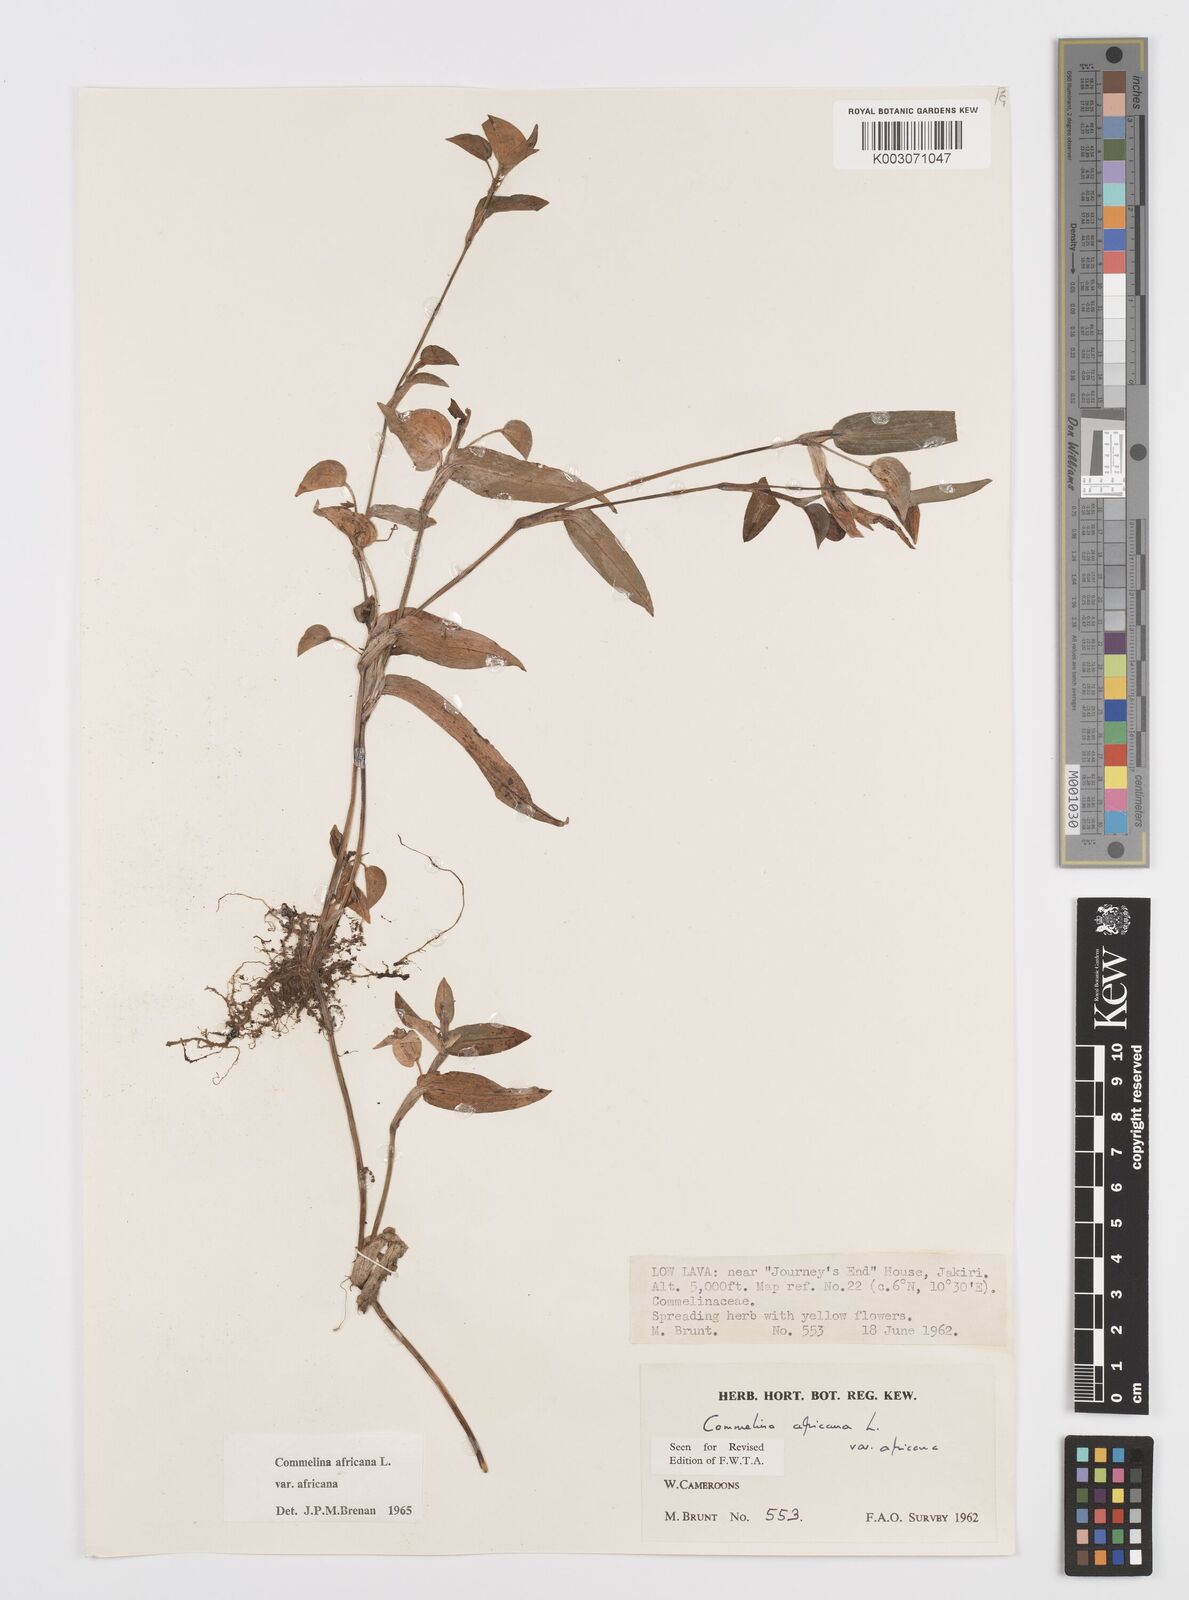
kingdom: Plantae
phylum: Tracheophyta
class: Liliopsida
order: Commelinales
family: Commelinaceae
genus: Commelina
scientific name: Commelina africana
